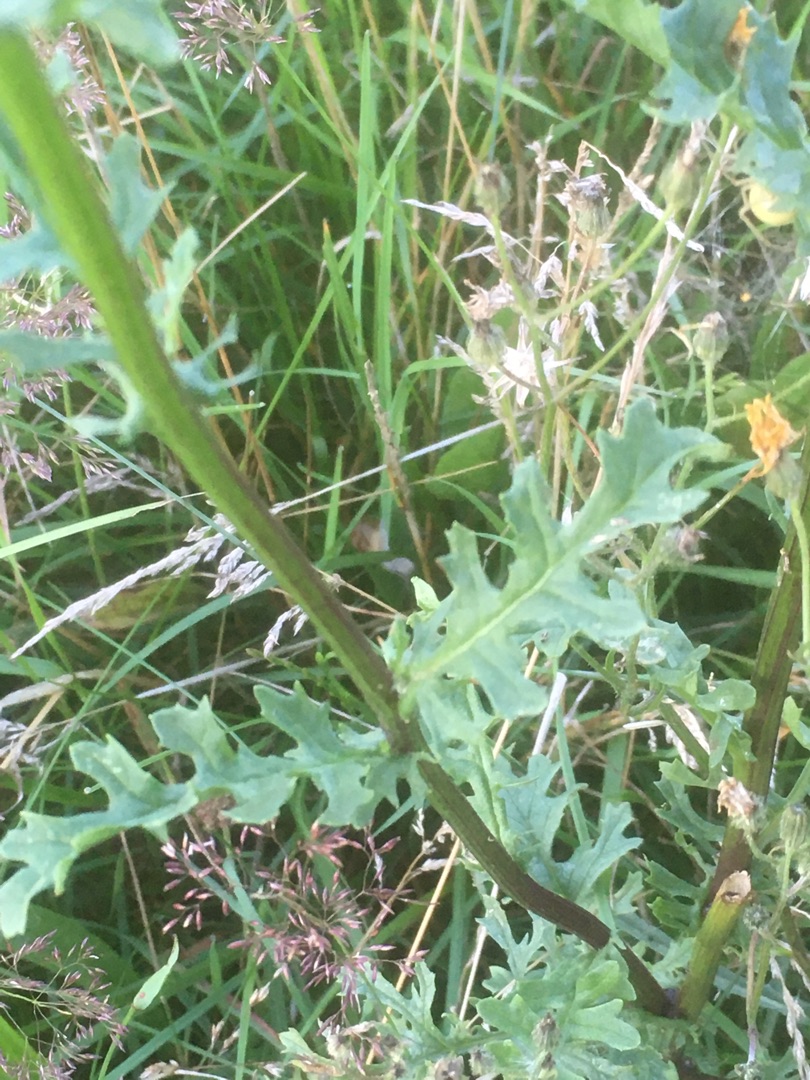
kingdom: Plantae
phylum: Tracheophyta
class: Magnoliopsida
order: Asterales
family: Asteraceae
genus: Jacobaea
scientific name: Jacobaea vulgaris
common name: Eng-brandbæger
